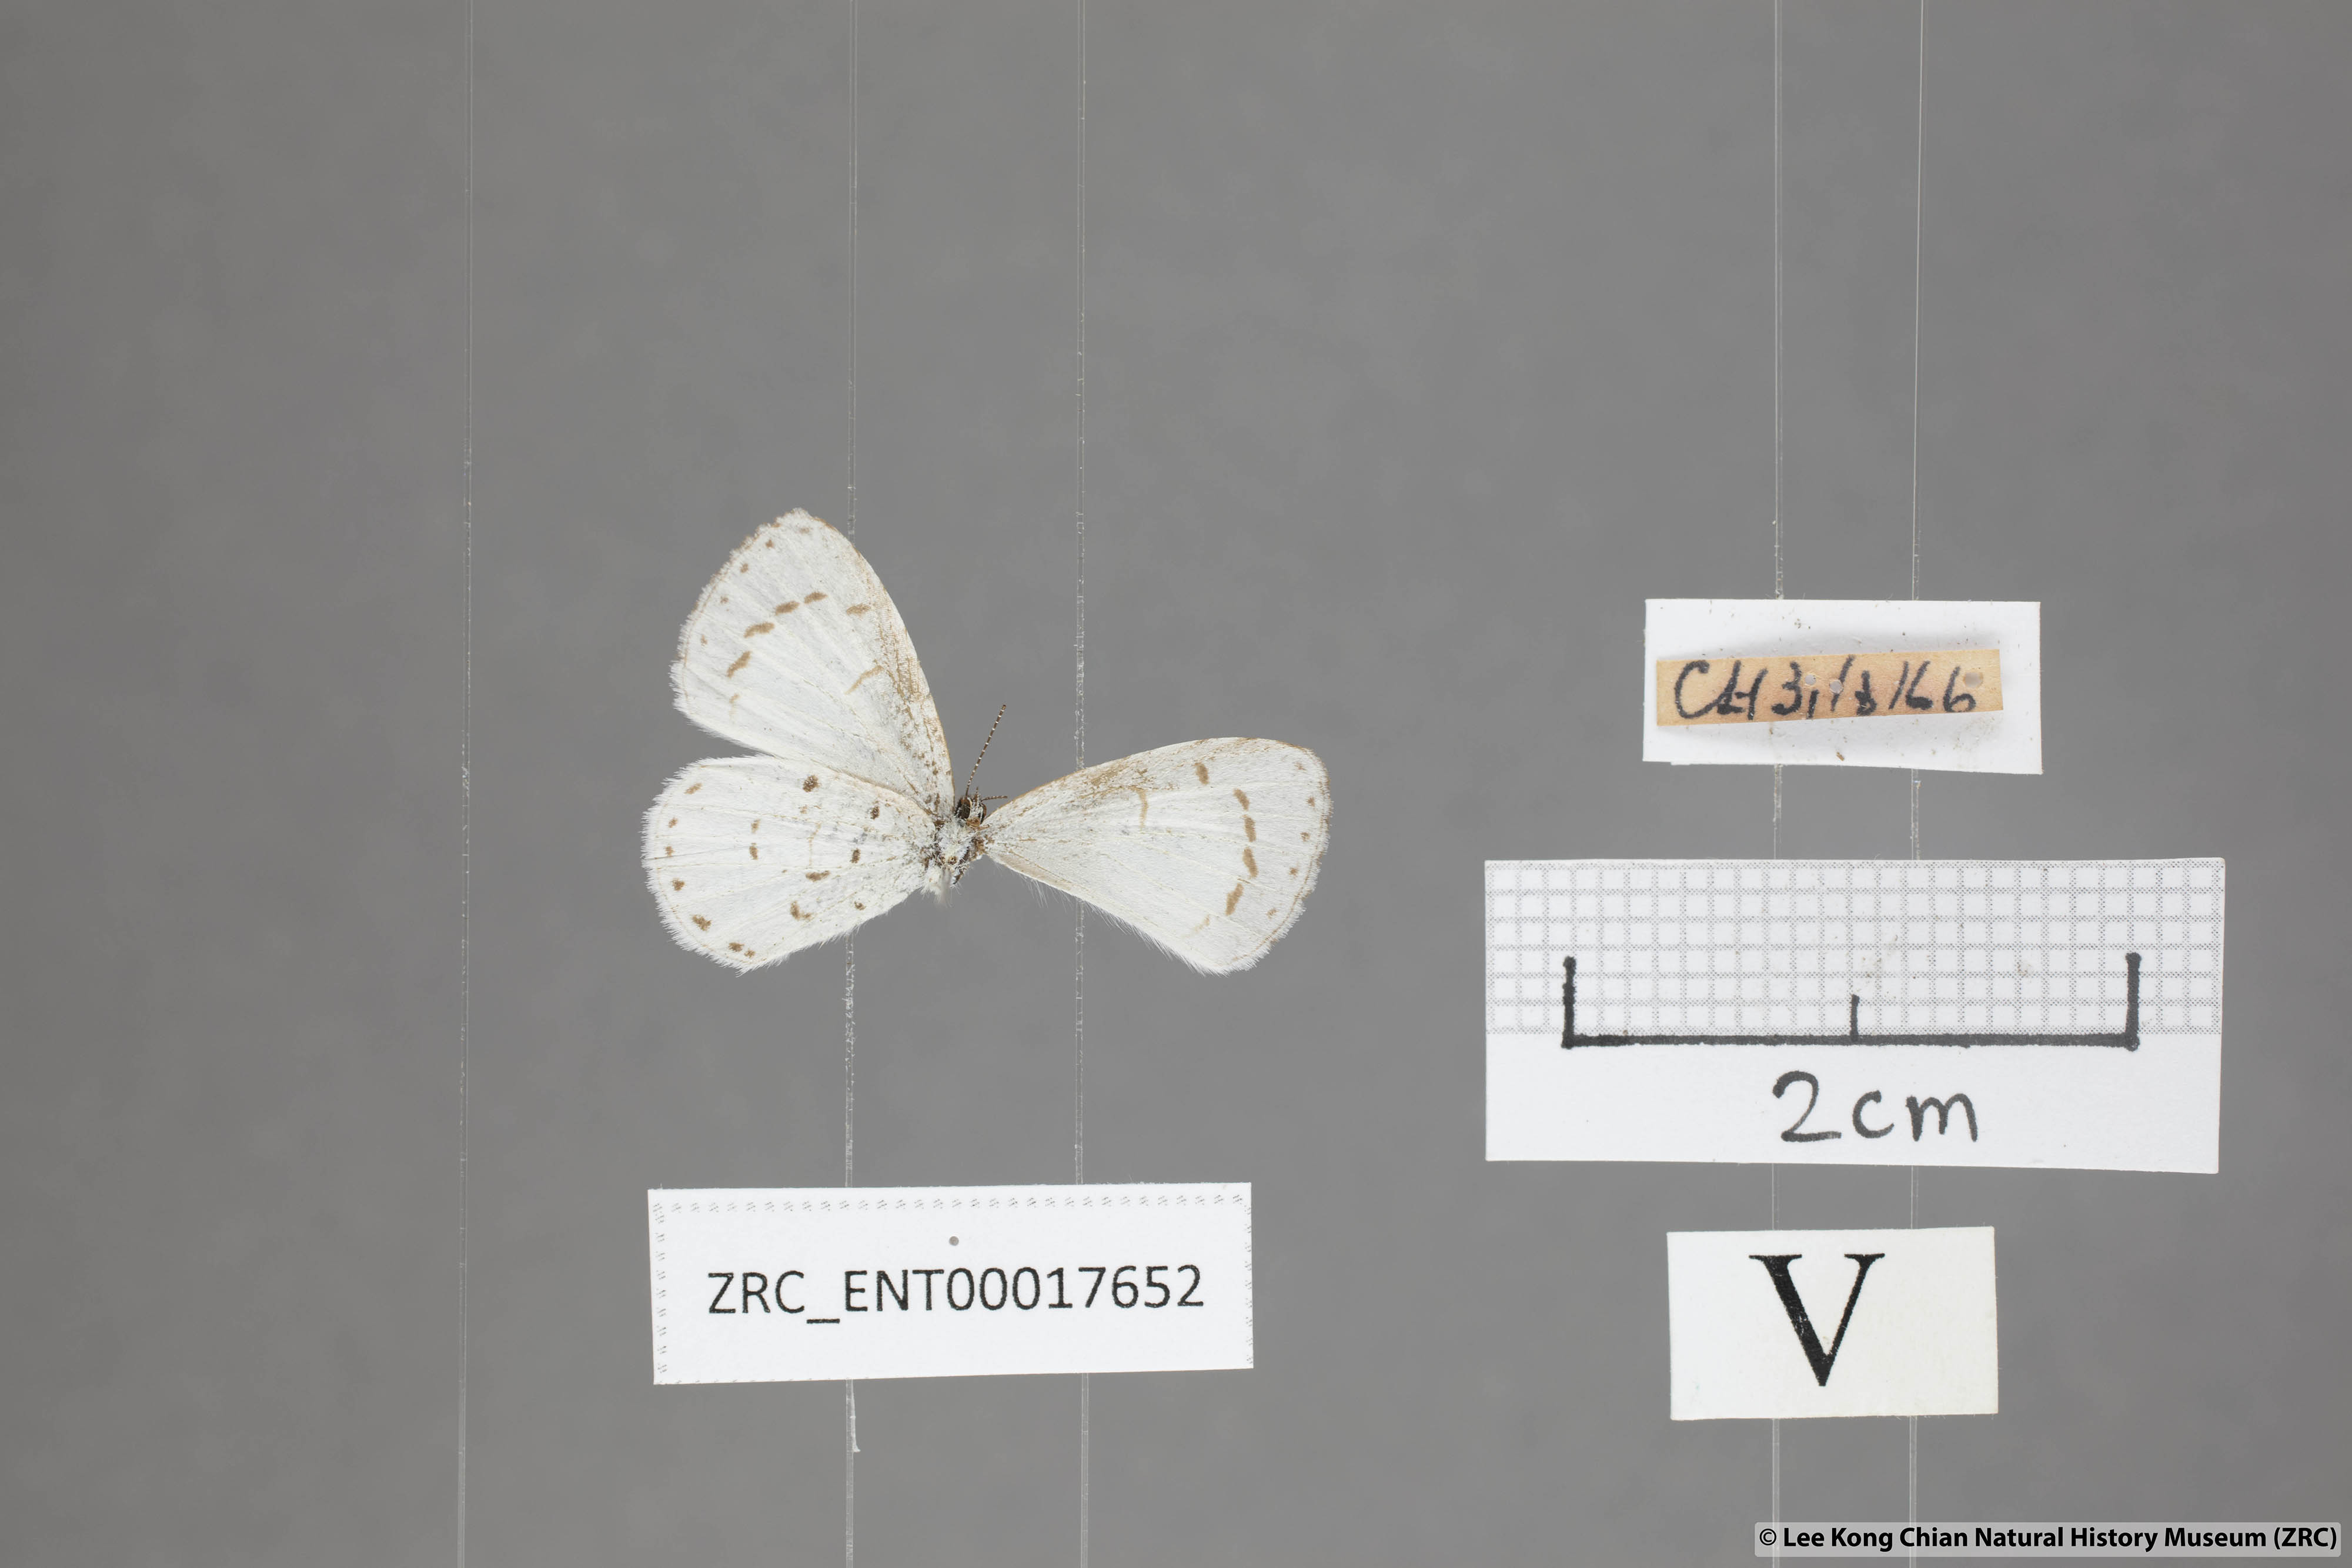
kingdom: Animalia
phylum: Arthropoda
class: Insecta
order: Lepidoptera
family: Lycaenidae
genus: Udara
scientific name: Udara akasa
